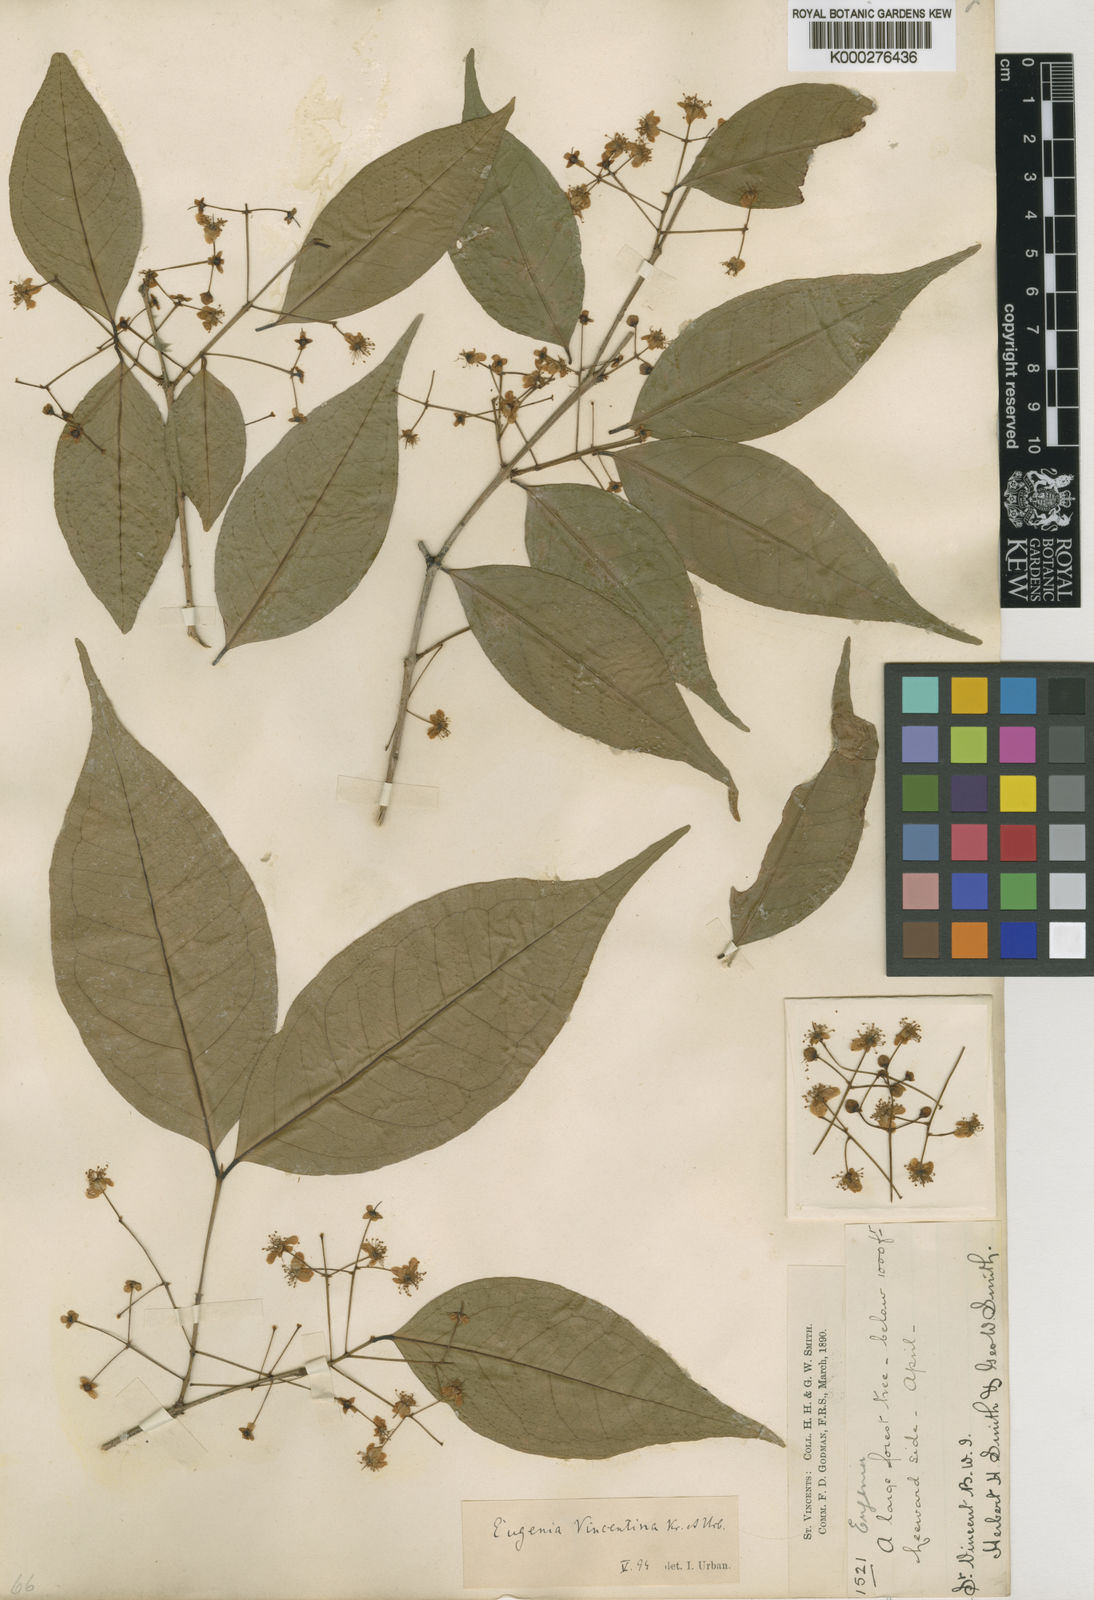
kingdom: Plantae
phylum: Tracheophyta
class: Magnoliopsida
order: Myrtales
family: Myrtaceae
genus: Eugenia
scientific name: Eugenia oerstediana
